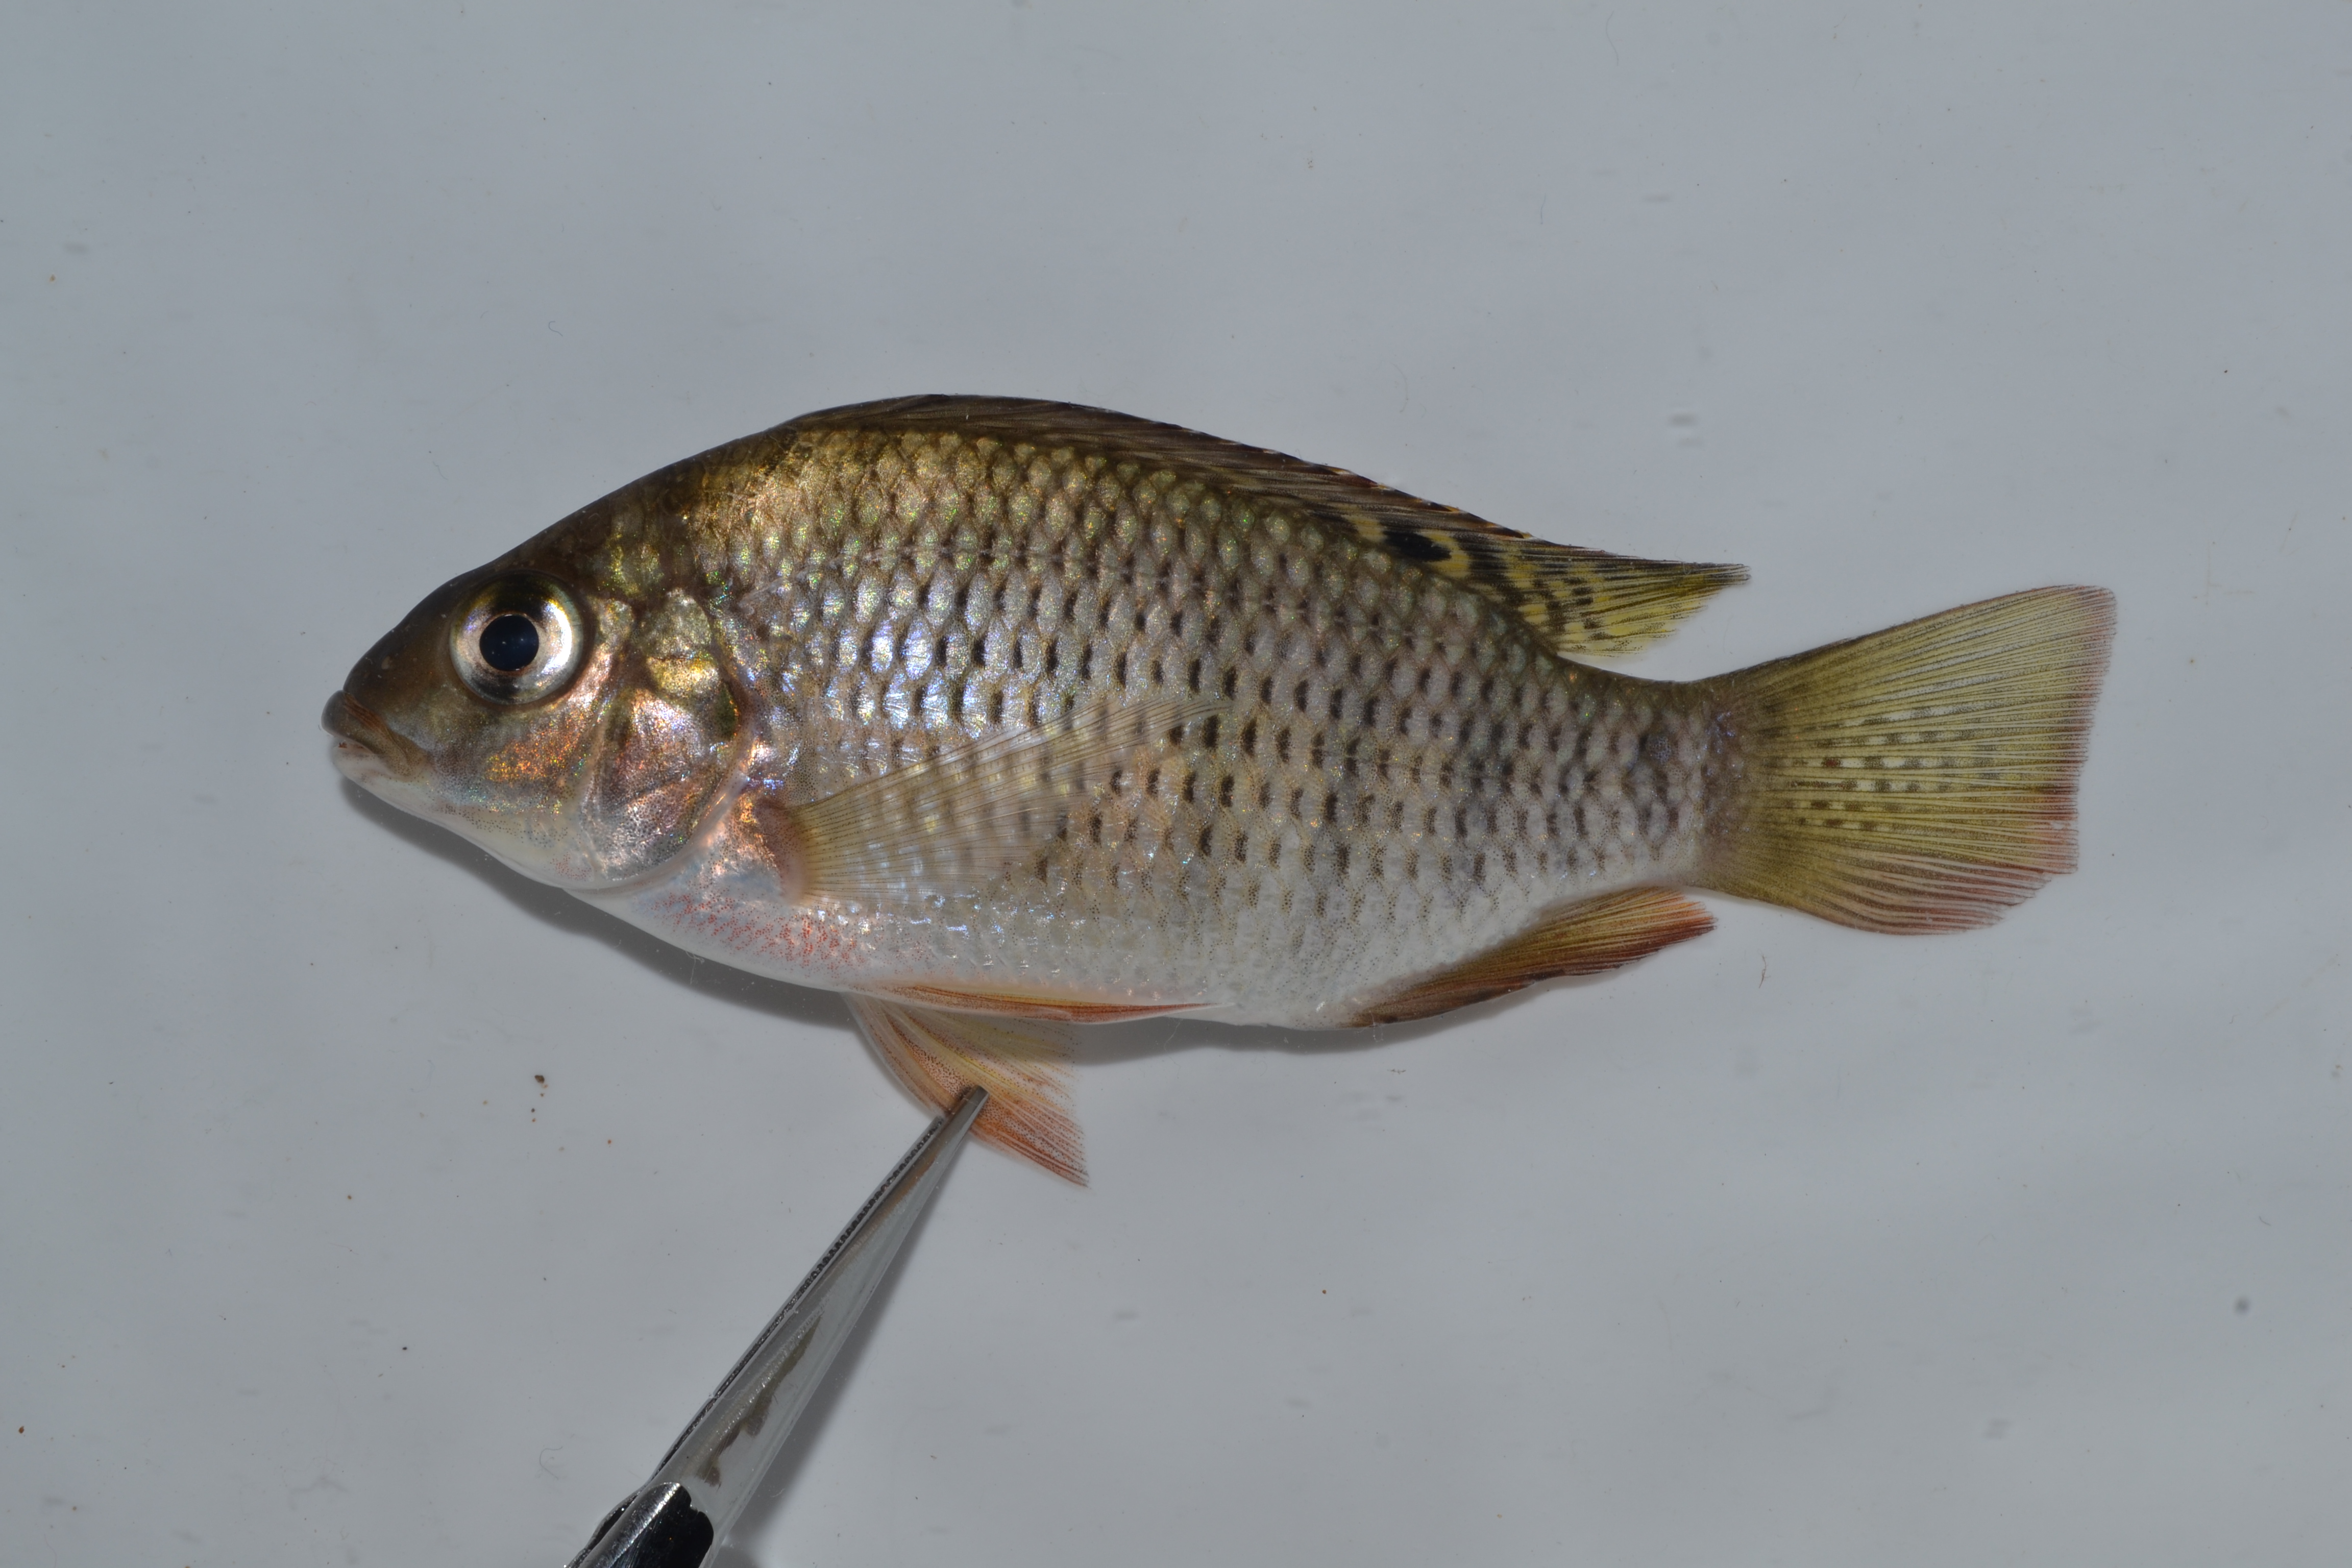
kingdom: Animalia
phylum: Chordata
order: Perciformes
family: Cichlidae
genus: Coptodon
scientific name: Coptodon rendalli
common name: Redbreast tilapia
